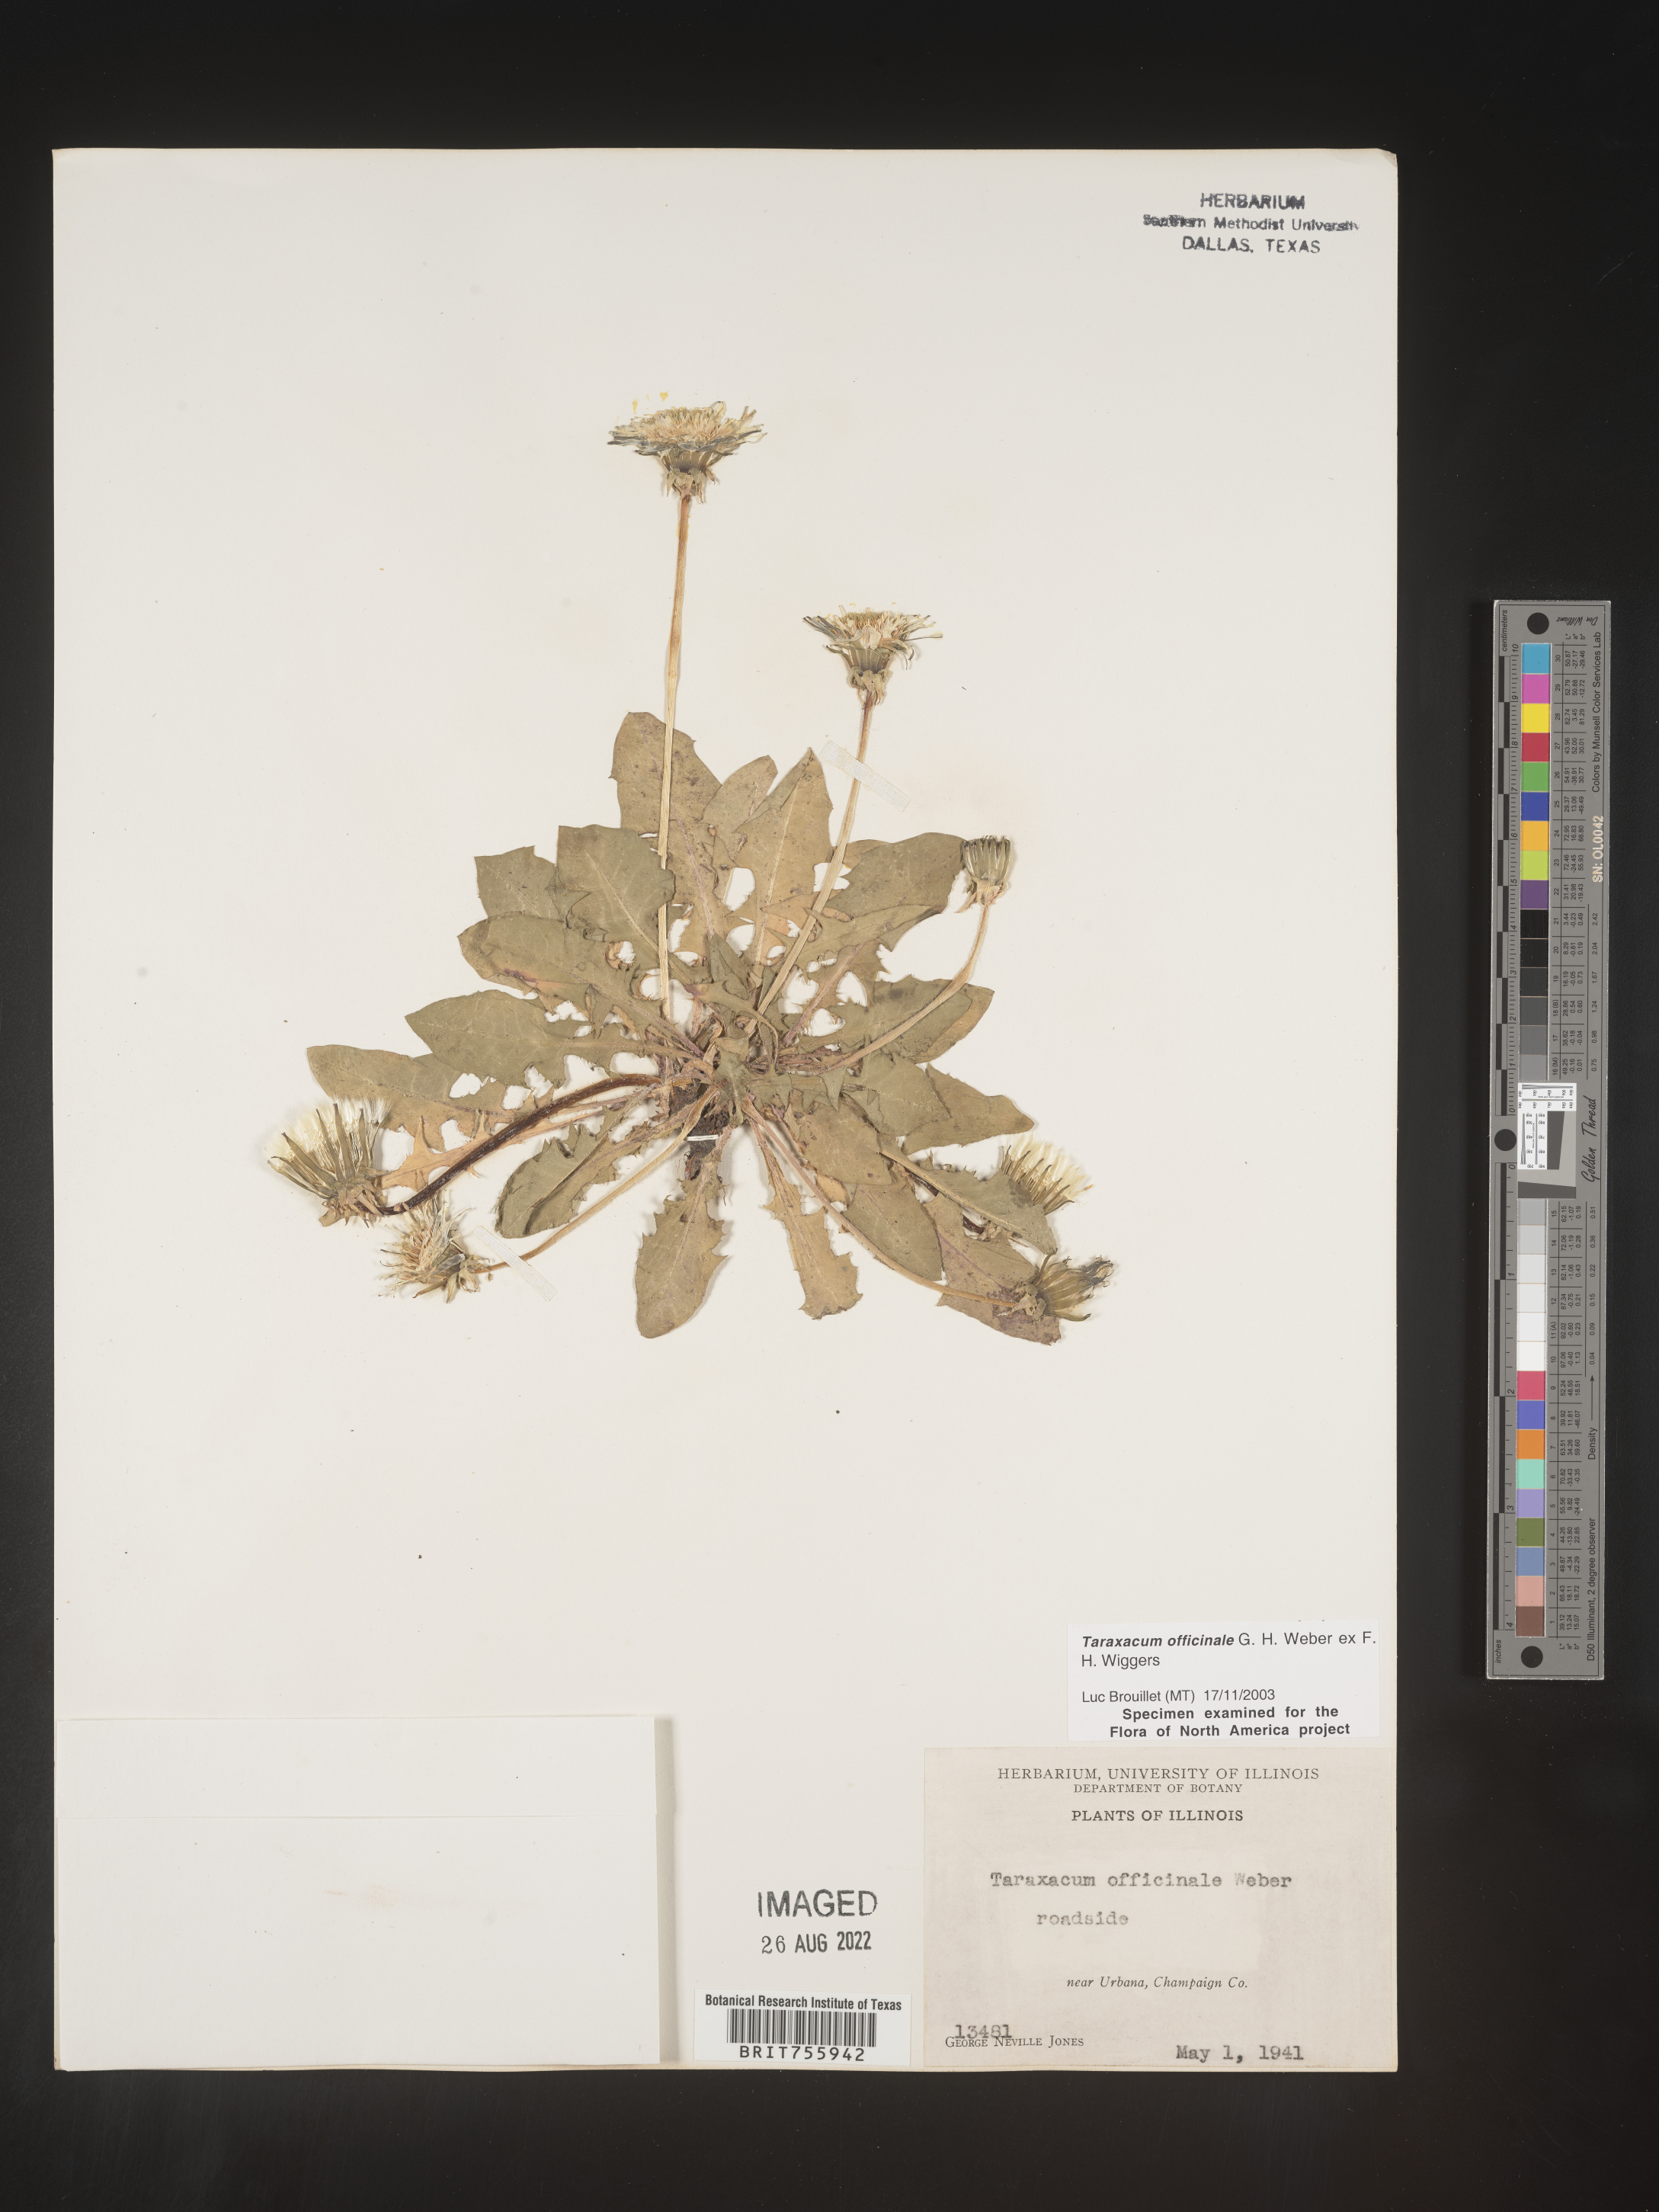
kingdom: Plantae
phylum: Tracheophyta
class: Magnoliopsida
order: Asterales
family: Asteraceae
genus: Taraxacum
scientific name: Taraxacum officinale
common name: Common dandelion
